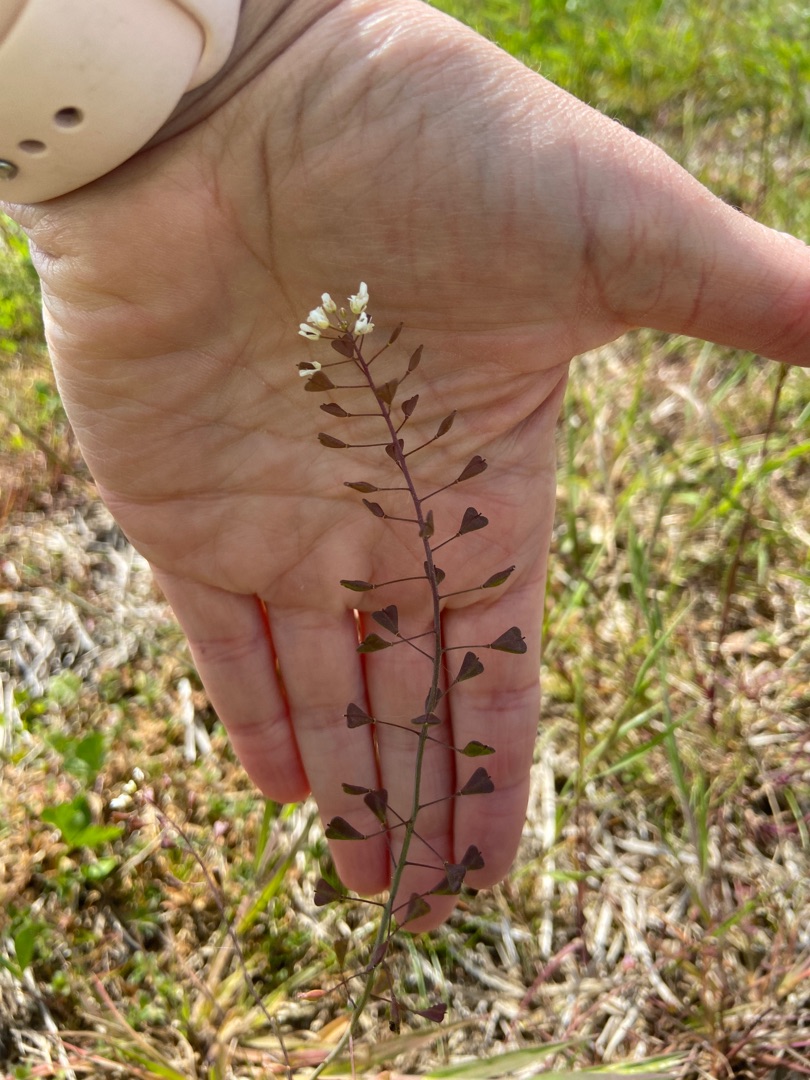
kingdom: Plantae
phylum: Tracheophyta
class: Magnoliopsida
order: Brassicales
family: Brassicaceae
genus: Capsella
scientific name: Capsella bursa-pastoris
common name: Hyrdetaske
